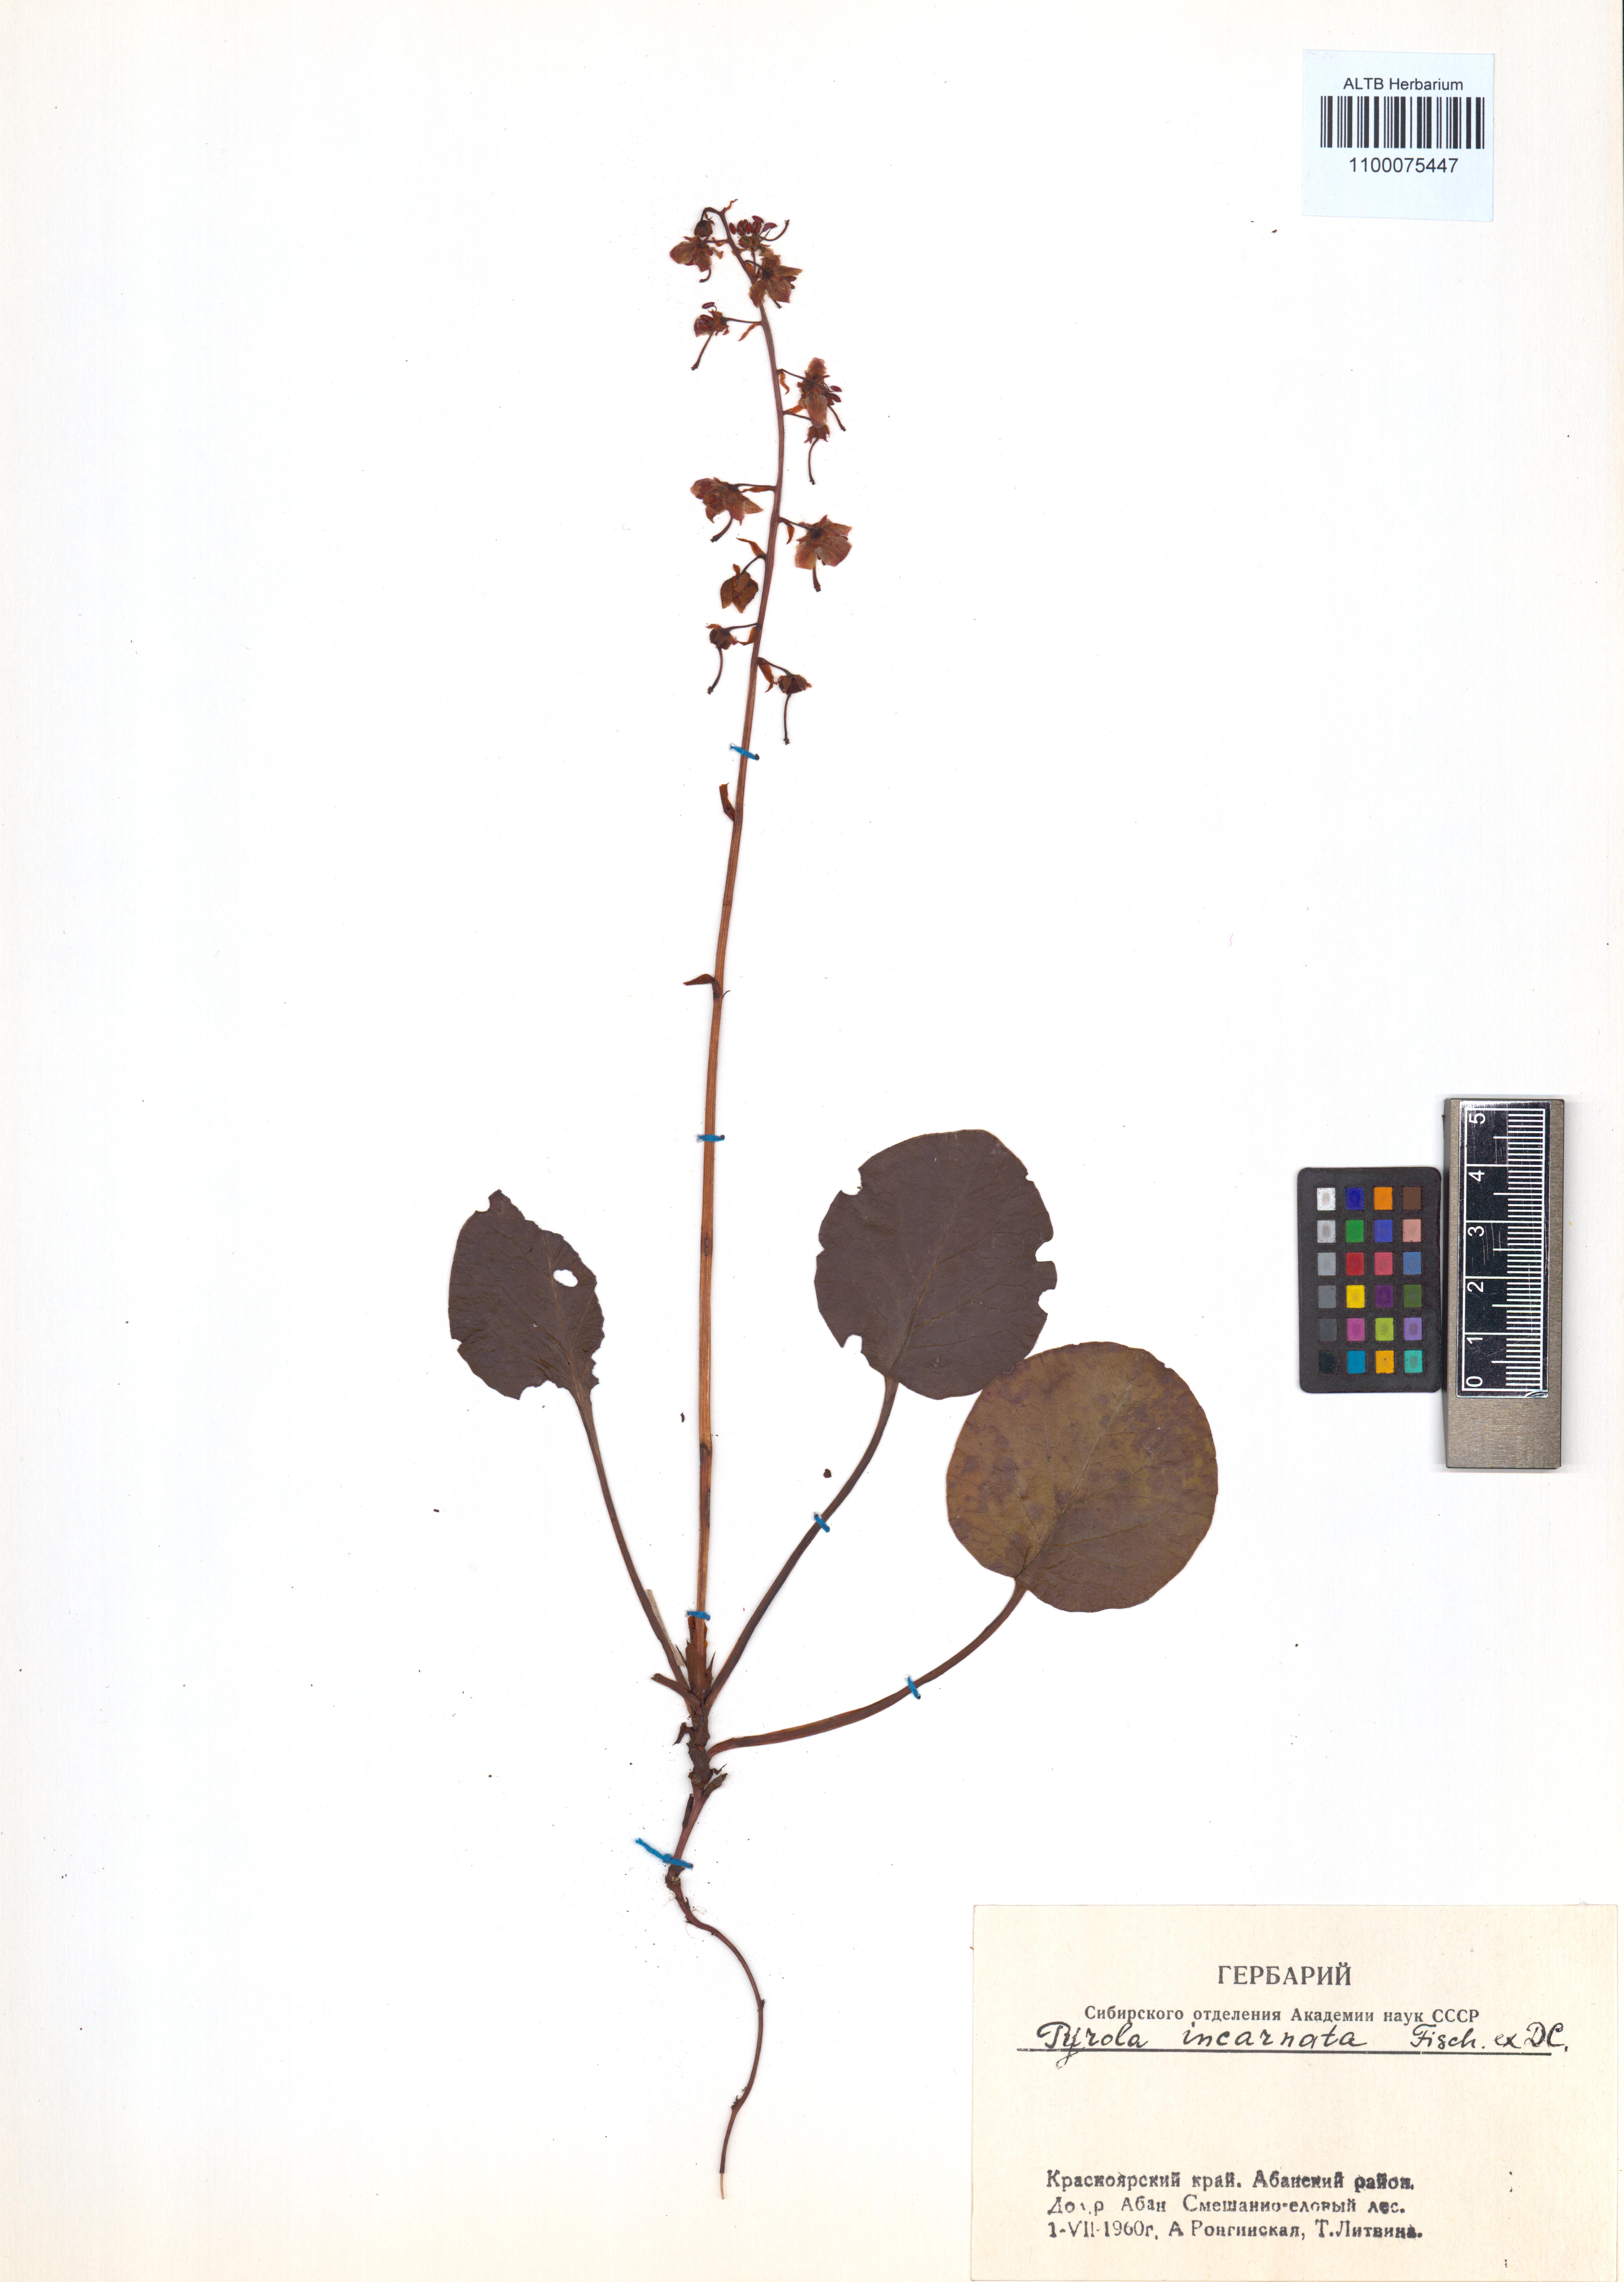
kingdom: Plantae
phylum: Tracheophyta
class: Magnoliopsida
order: Ericales
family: Ericaceae
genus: Pyrola
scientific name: Pyrola asarifolia
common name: Bog wintergreen
